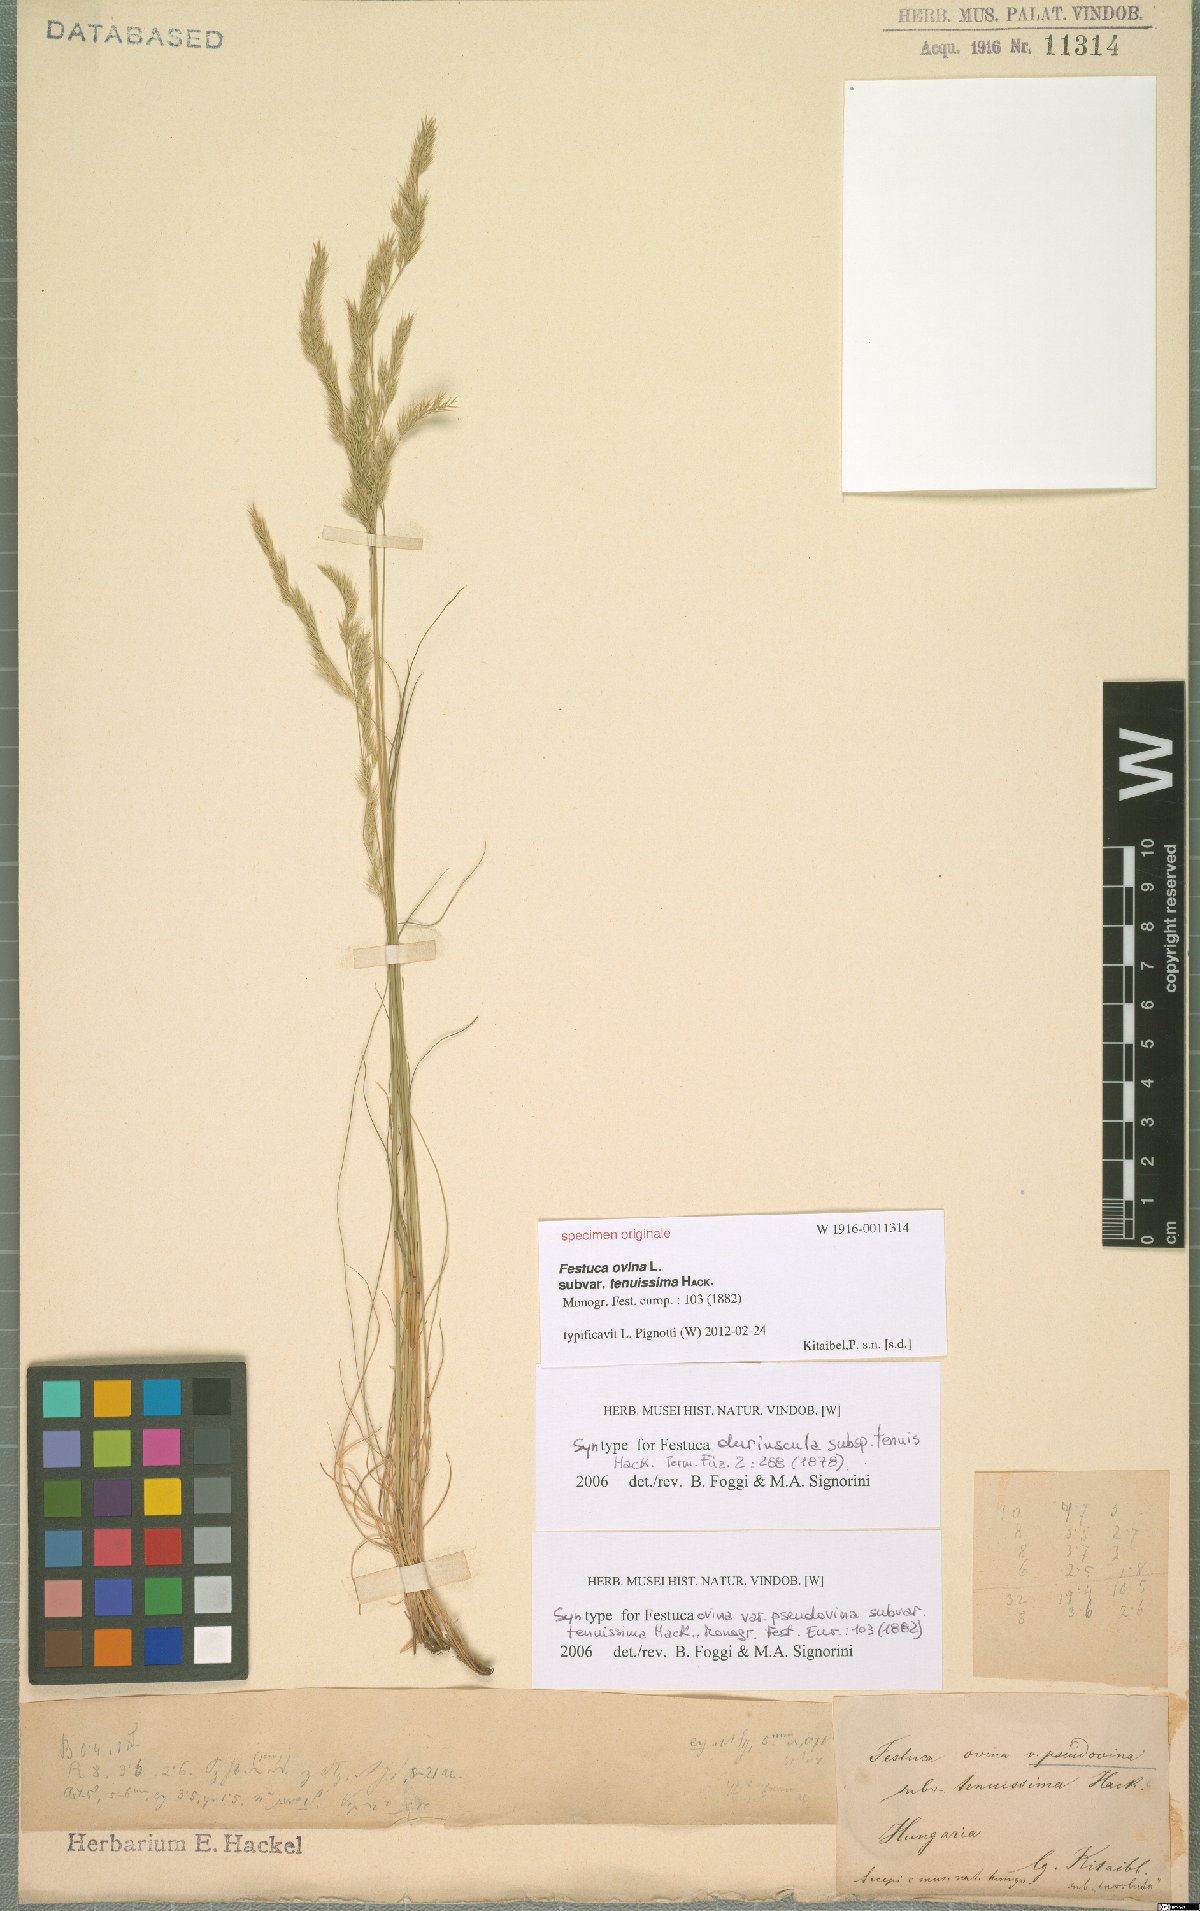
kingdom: Plantae
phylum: Tracheophyta
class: Liliopsida
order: Poales
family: Poaceae
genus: Festuca
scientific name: Festuca ovina
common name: Sheep fescue
